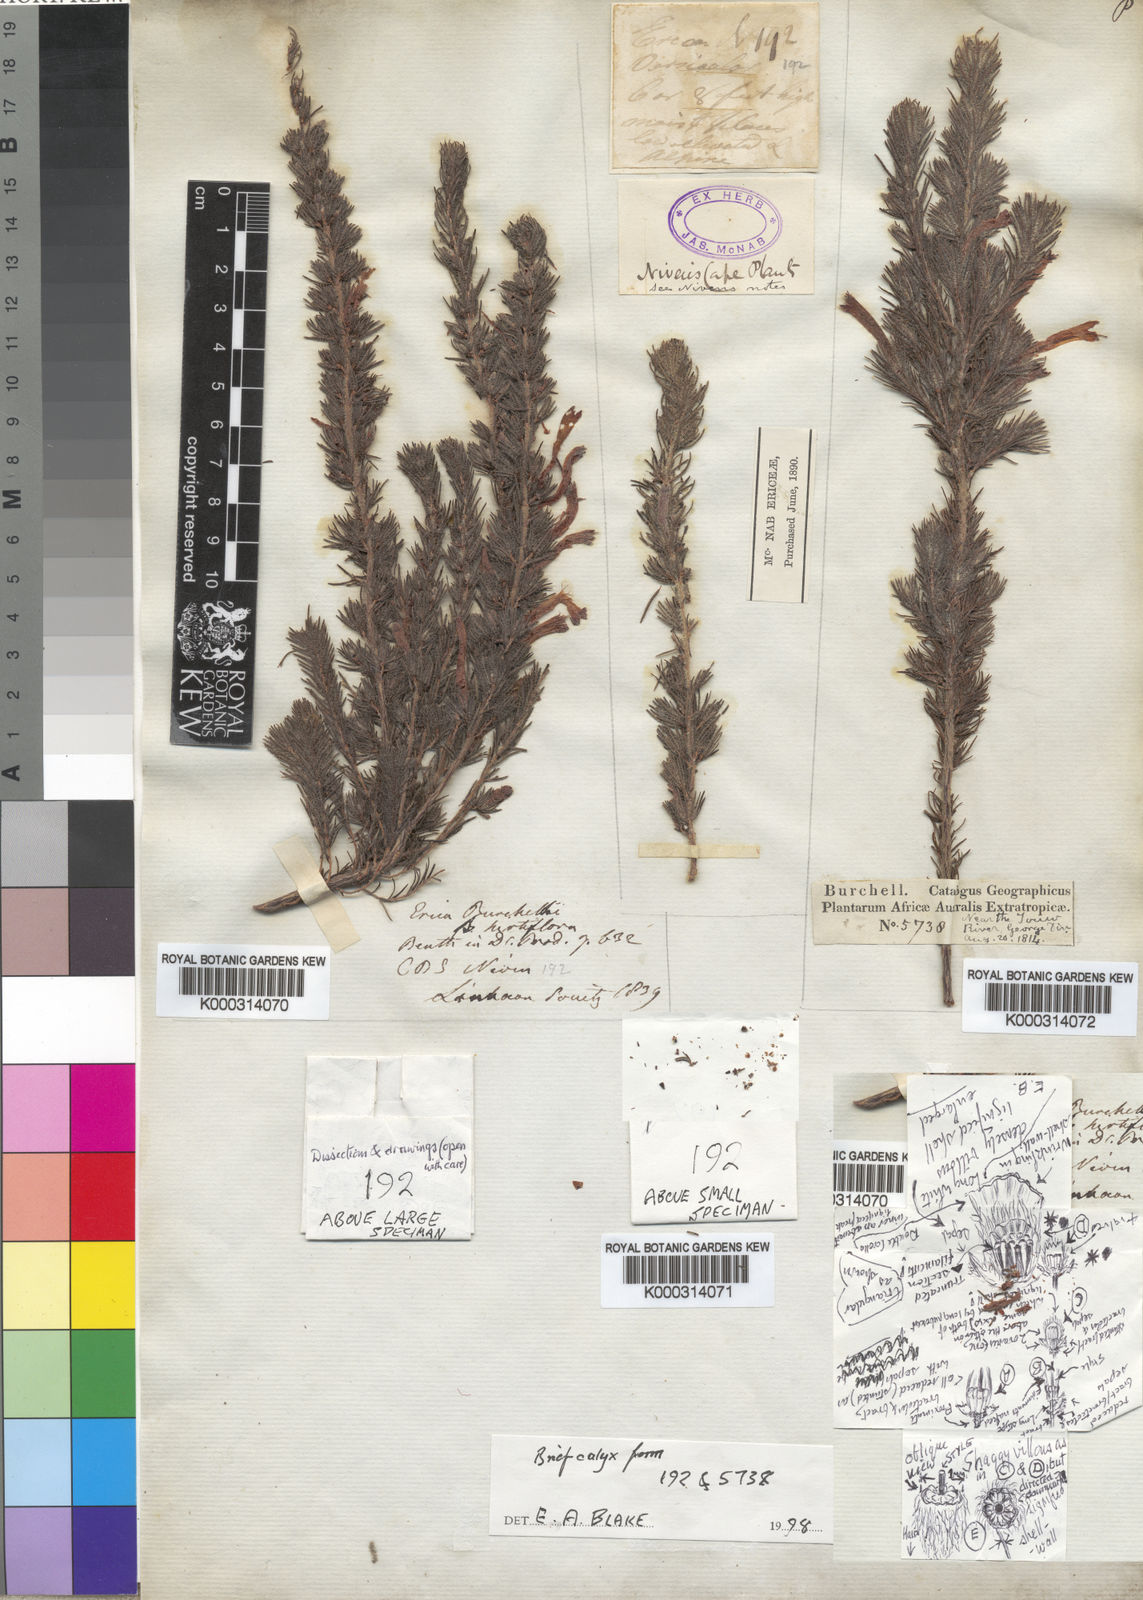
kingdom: Plantae
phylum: Tracheophyta
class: Magnoliopsida
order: Ericales
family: Ericaceae
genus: Erica
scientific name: Erica curviflora
